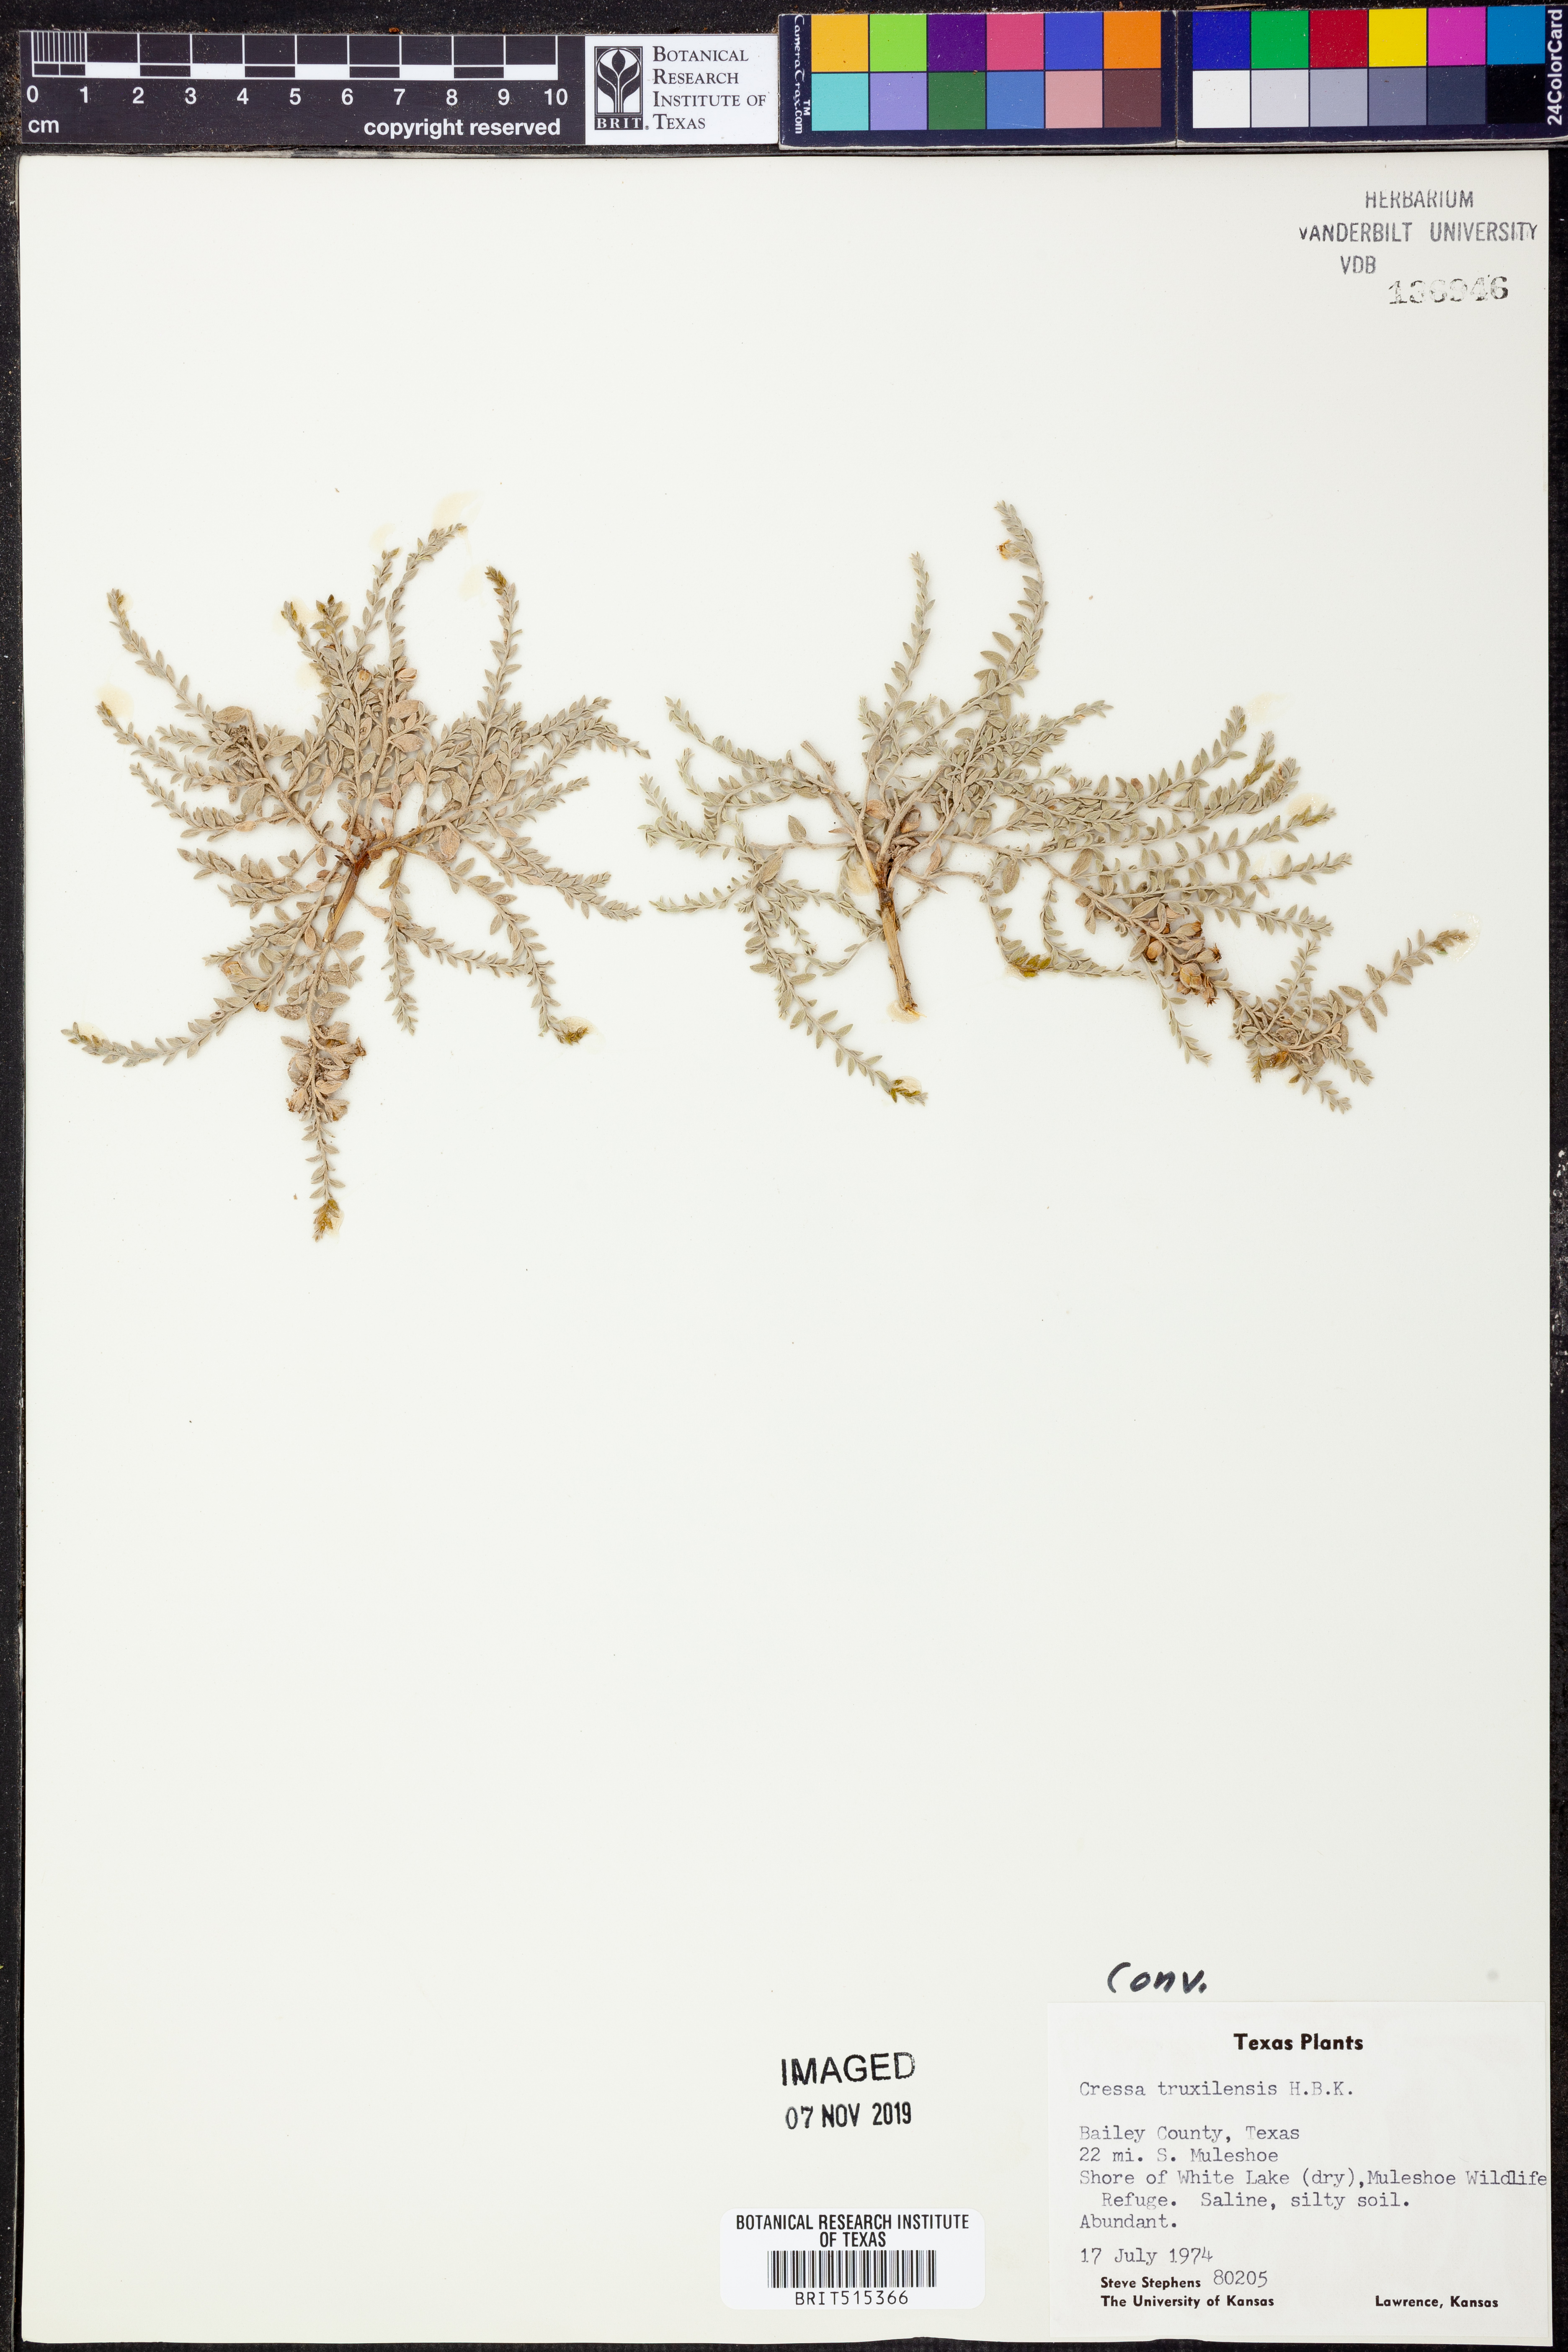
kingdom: Plantae
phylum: Tracheophyta
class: Magnoliopsida
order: Solanales
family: Convolvulaceae
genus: Cressa
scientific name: Cressa truxillensis
